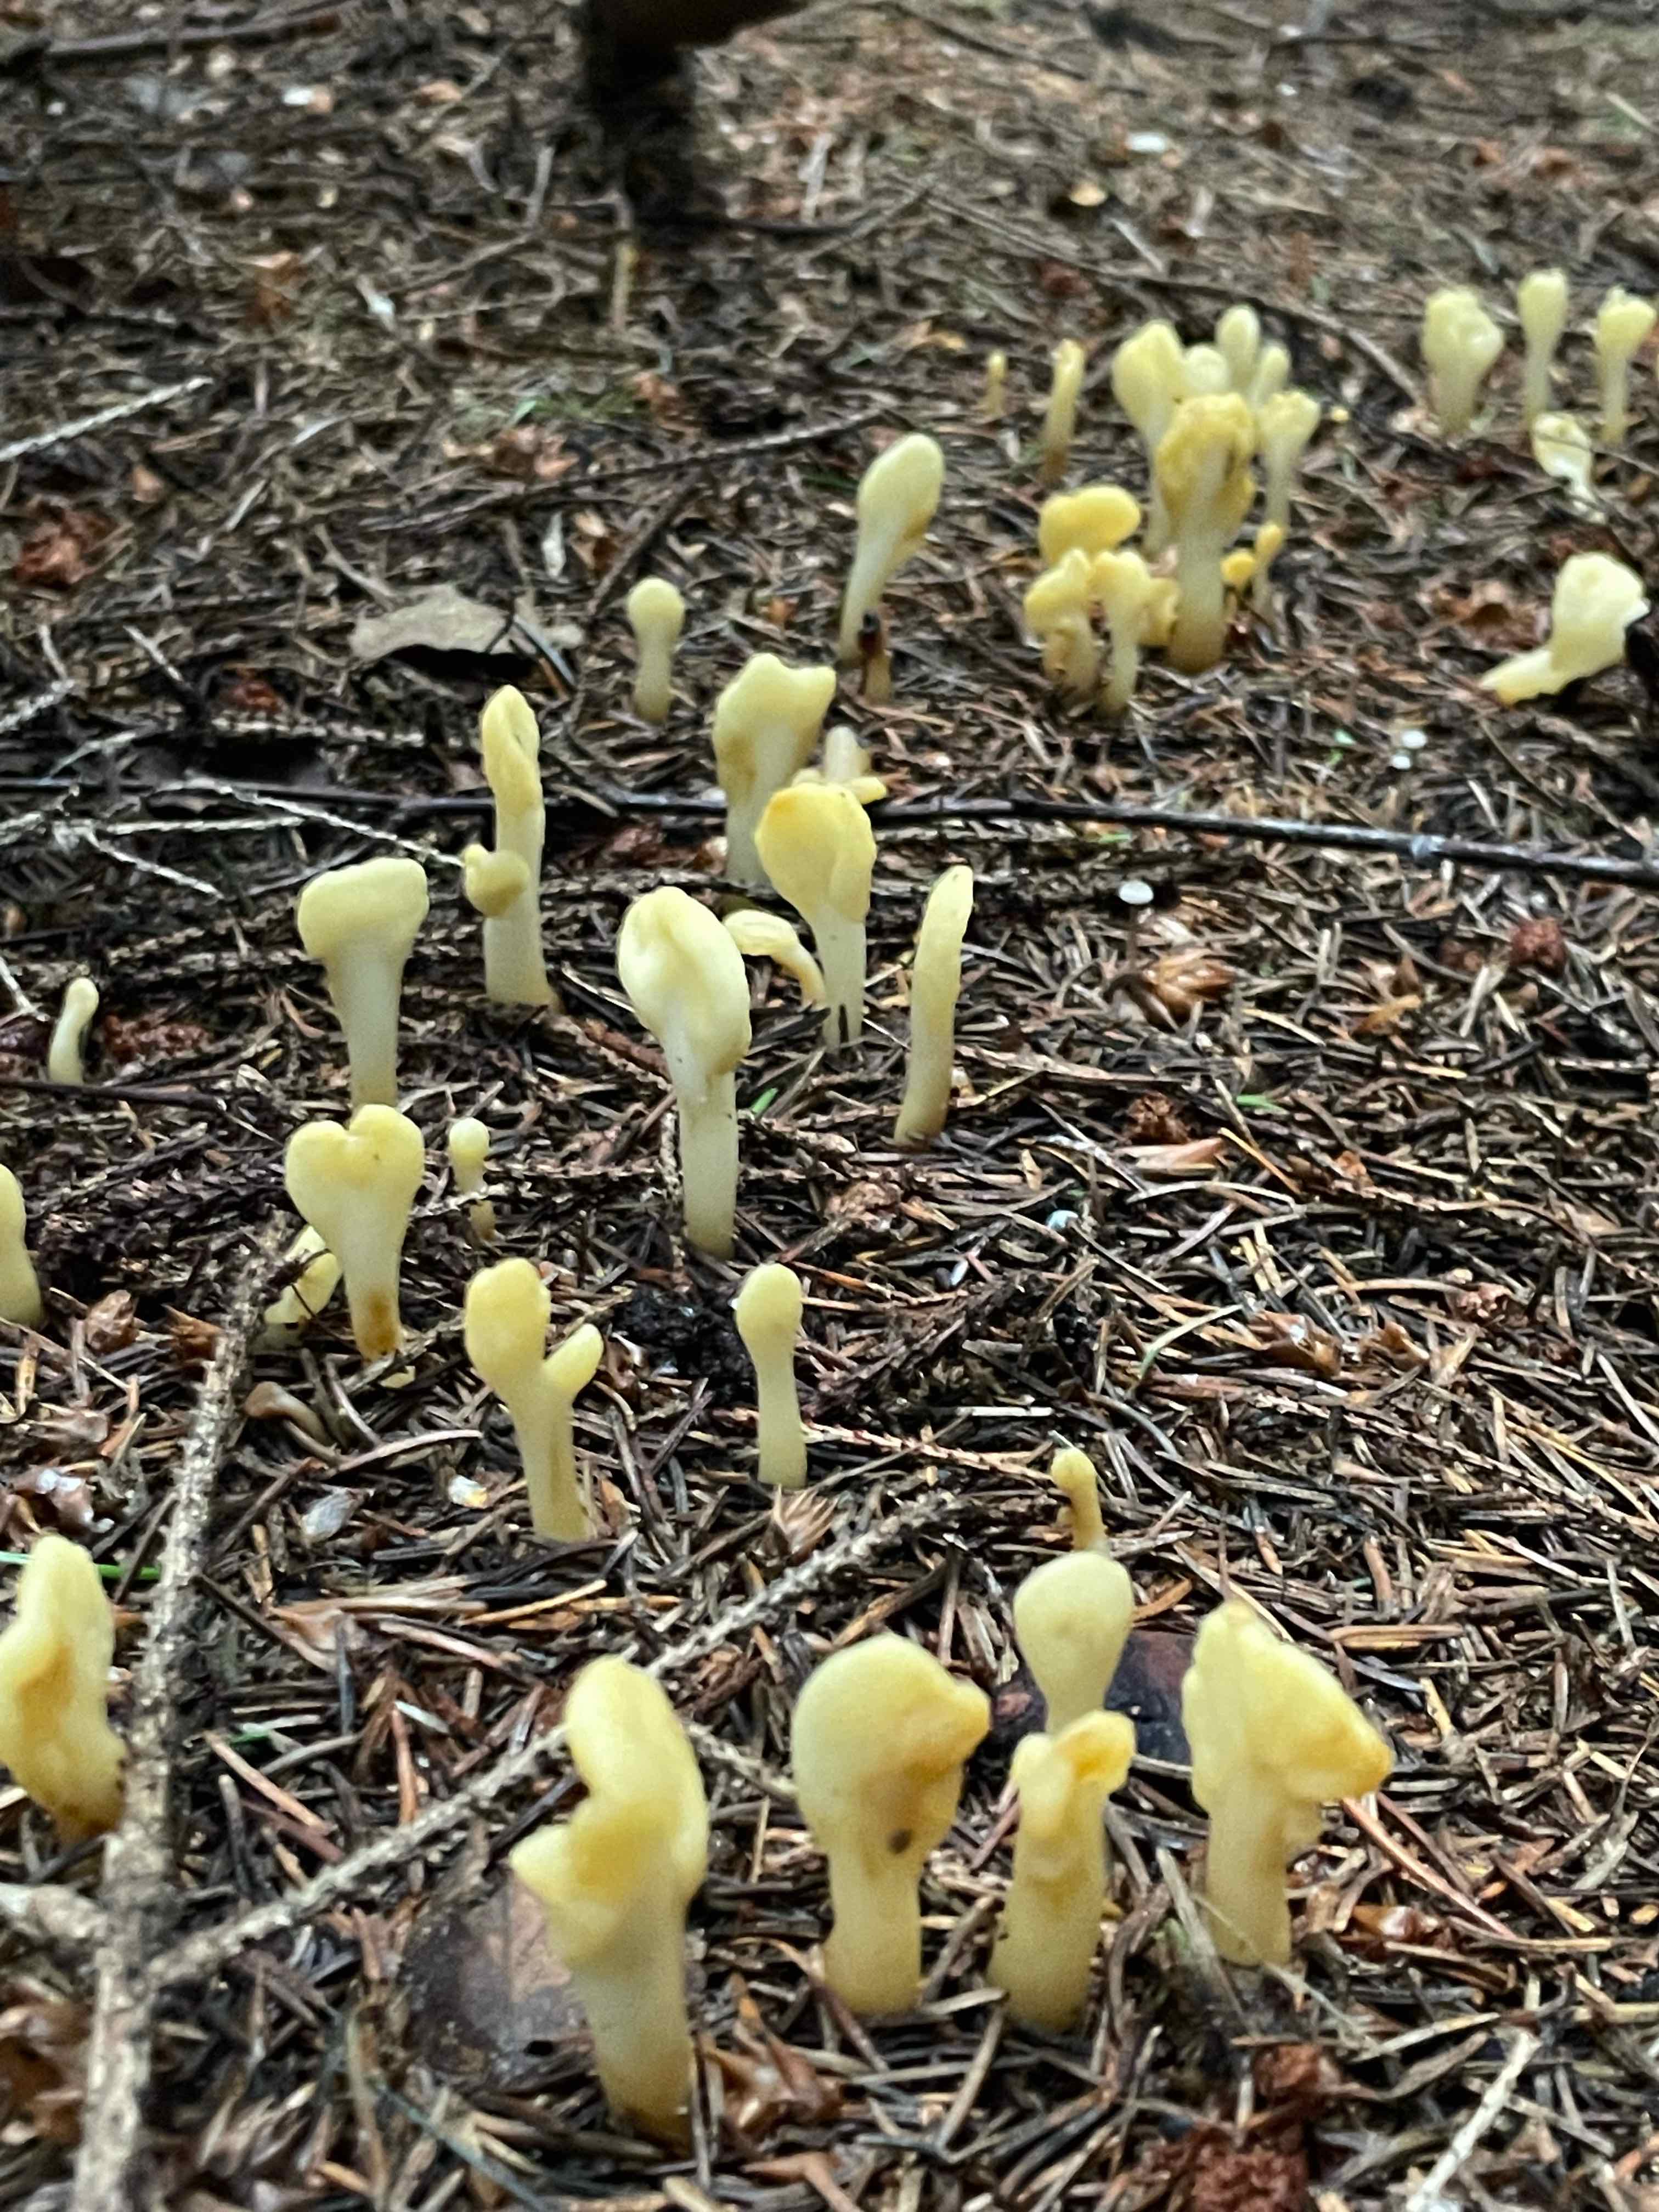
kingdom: Fungi
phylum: Ascomycota
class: Leotiomycetes
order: Rhytismatales
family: Cudoniaceae
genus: Spathularia
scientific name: Spathularia flavida
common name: gul spatelsvamp
